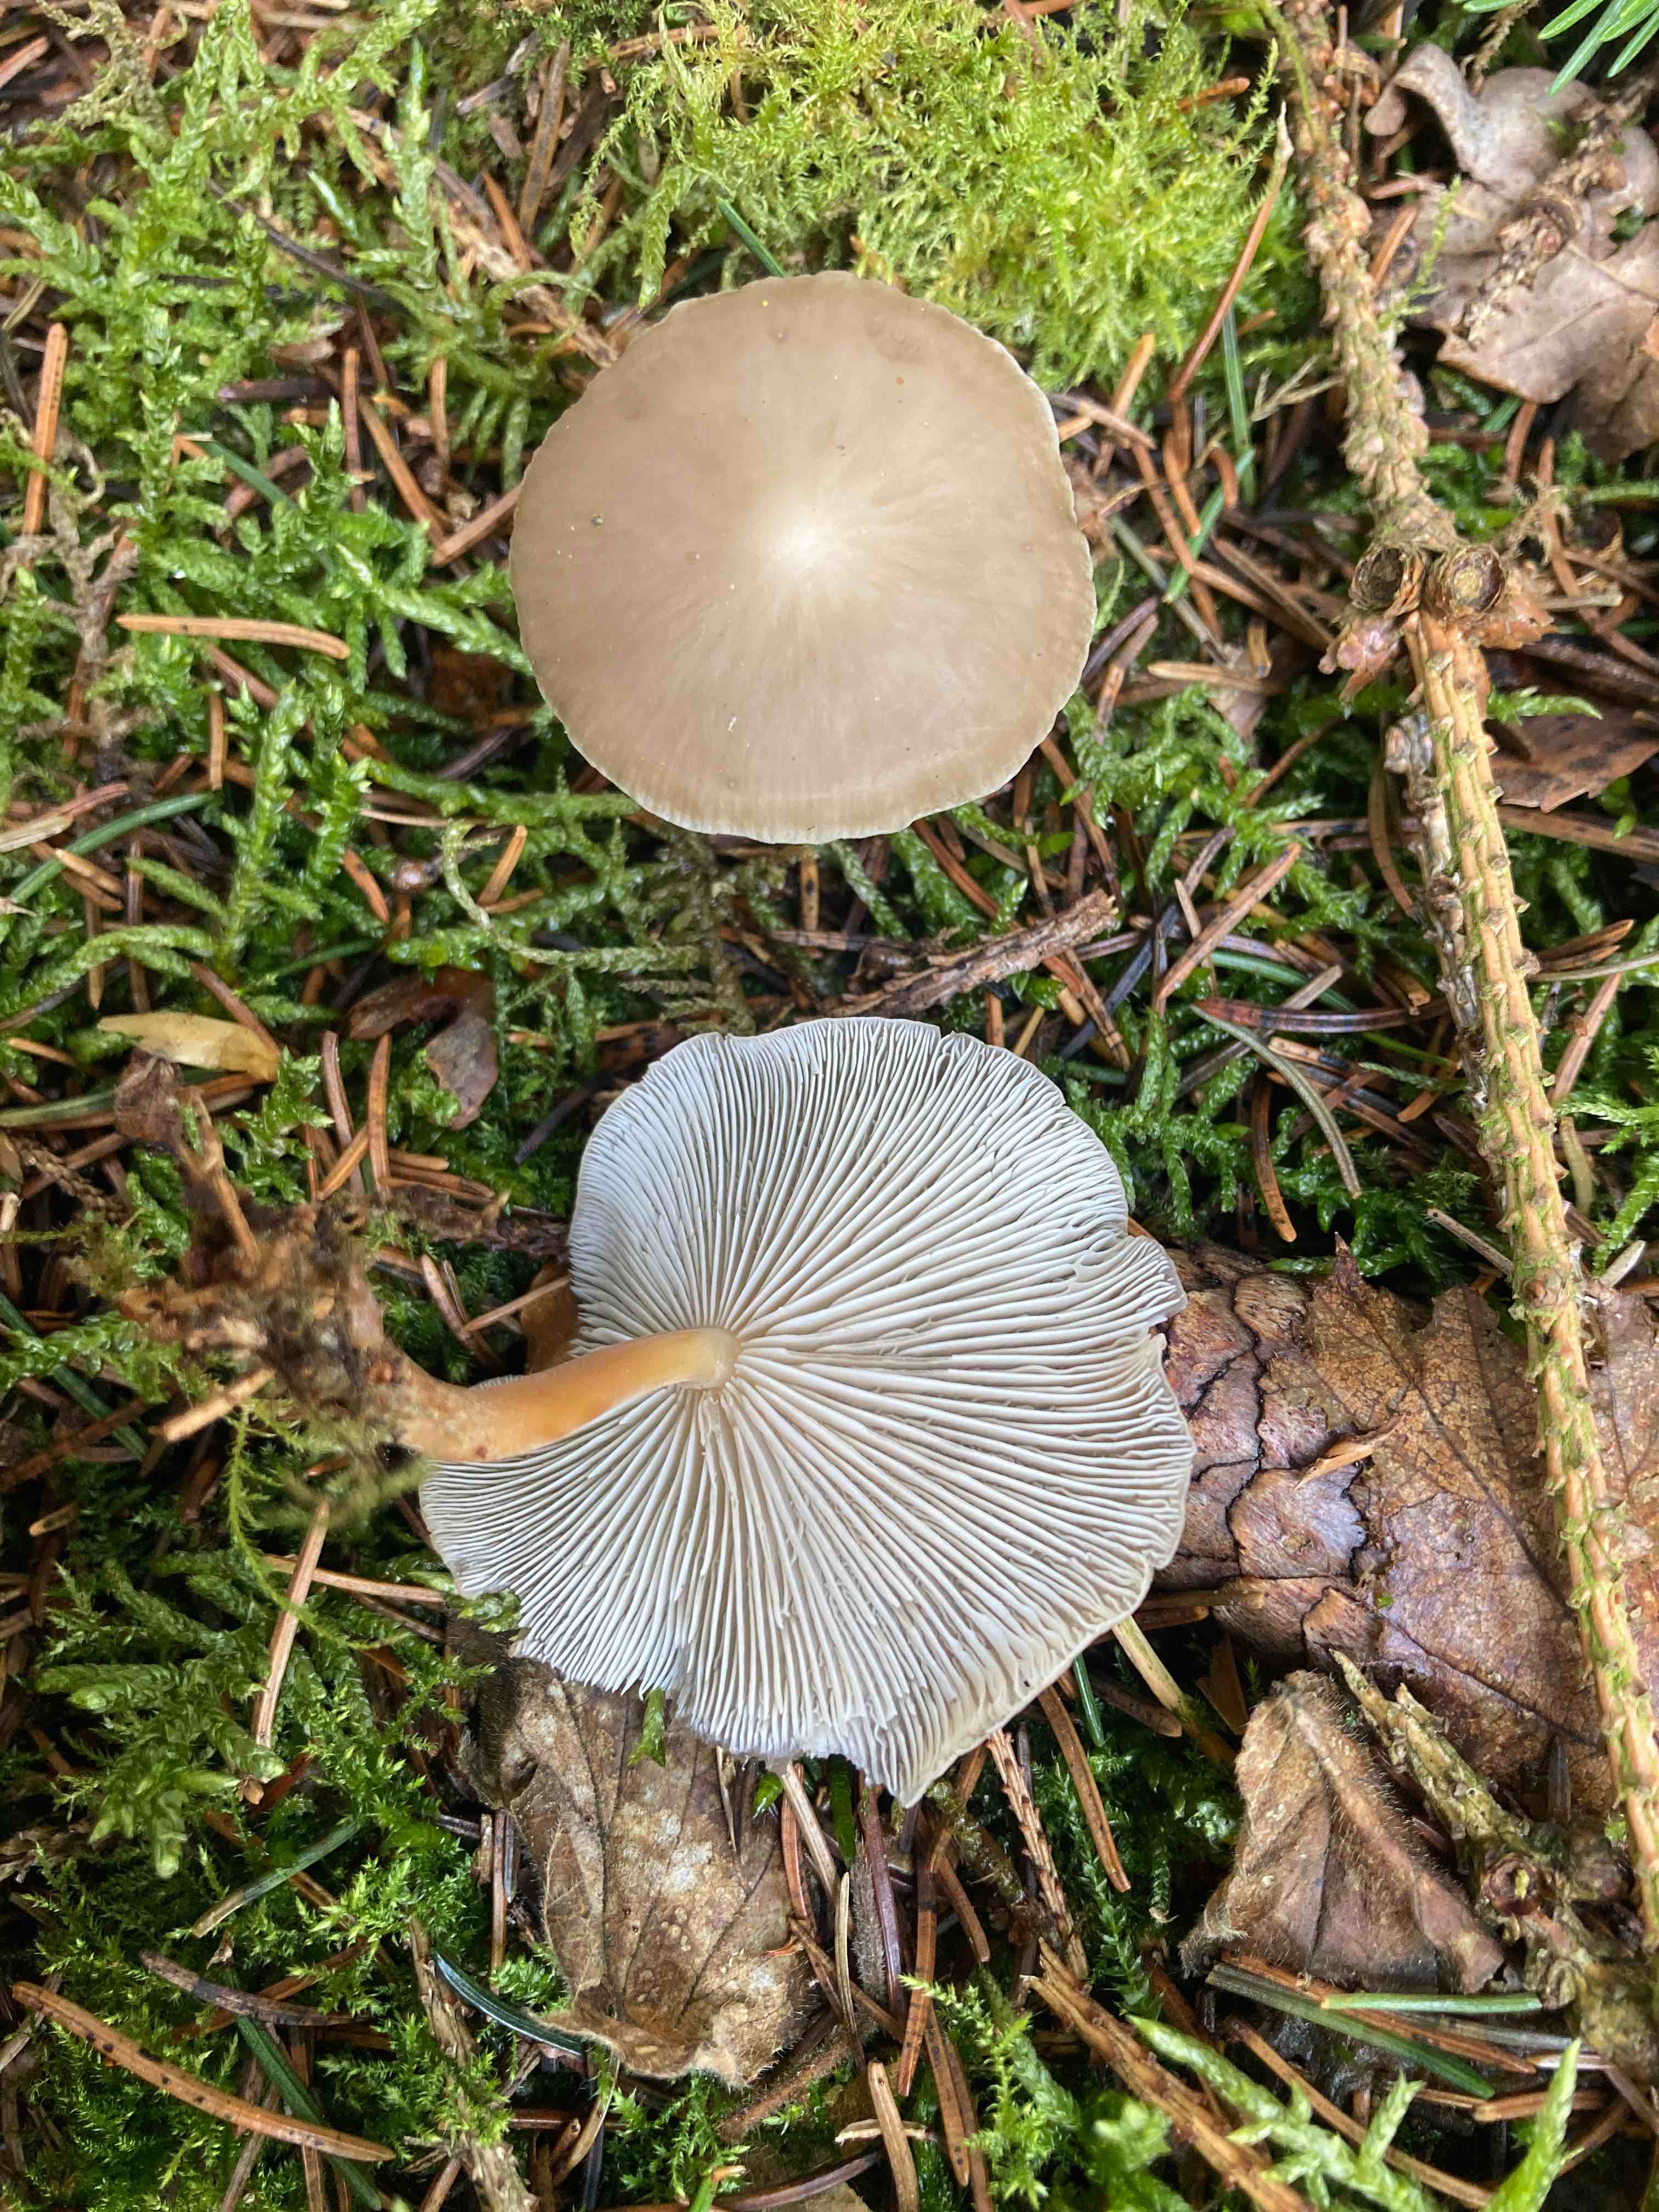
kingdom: Fungi
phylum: Basidiomycota
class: Agaricomycetes
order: Agaricales
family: Physalacriaceae
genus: Strobilurus
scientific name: Strobilurus esculentus
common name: gran-koglehat
